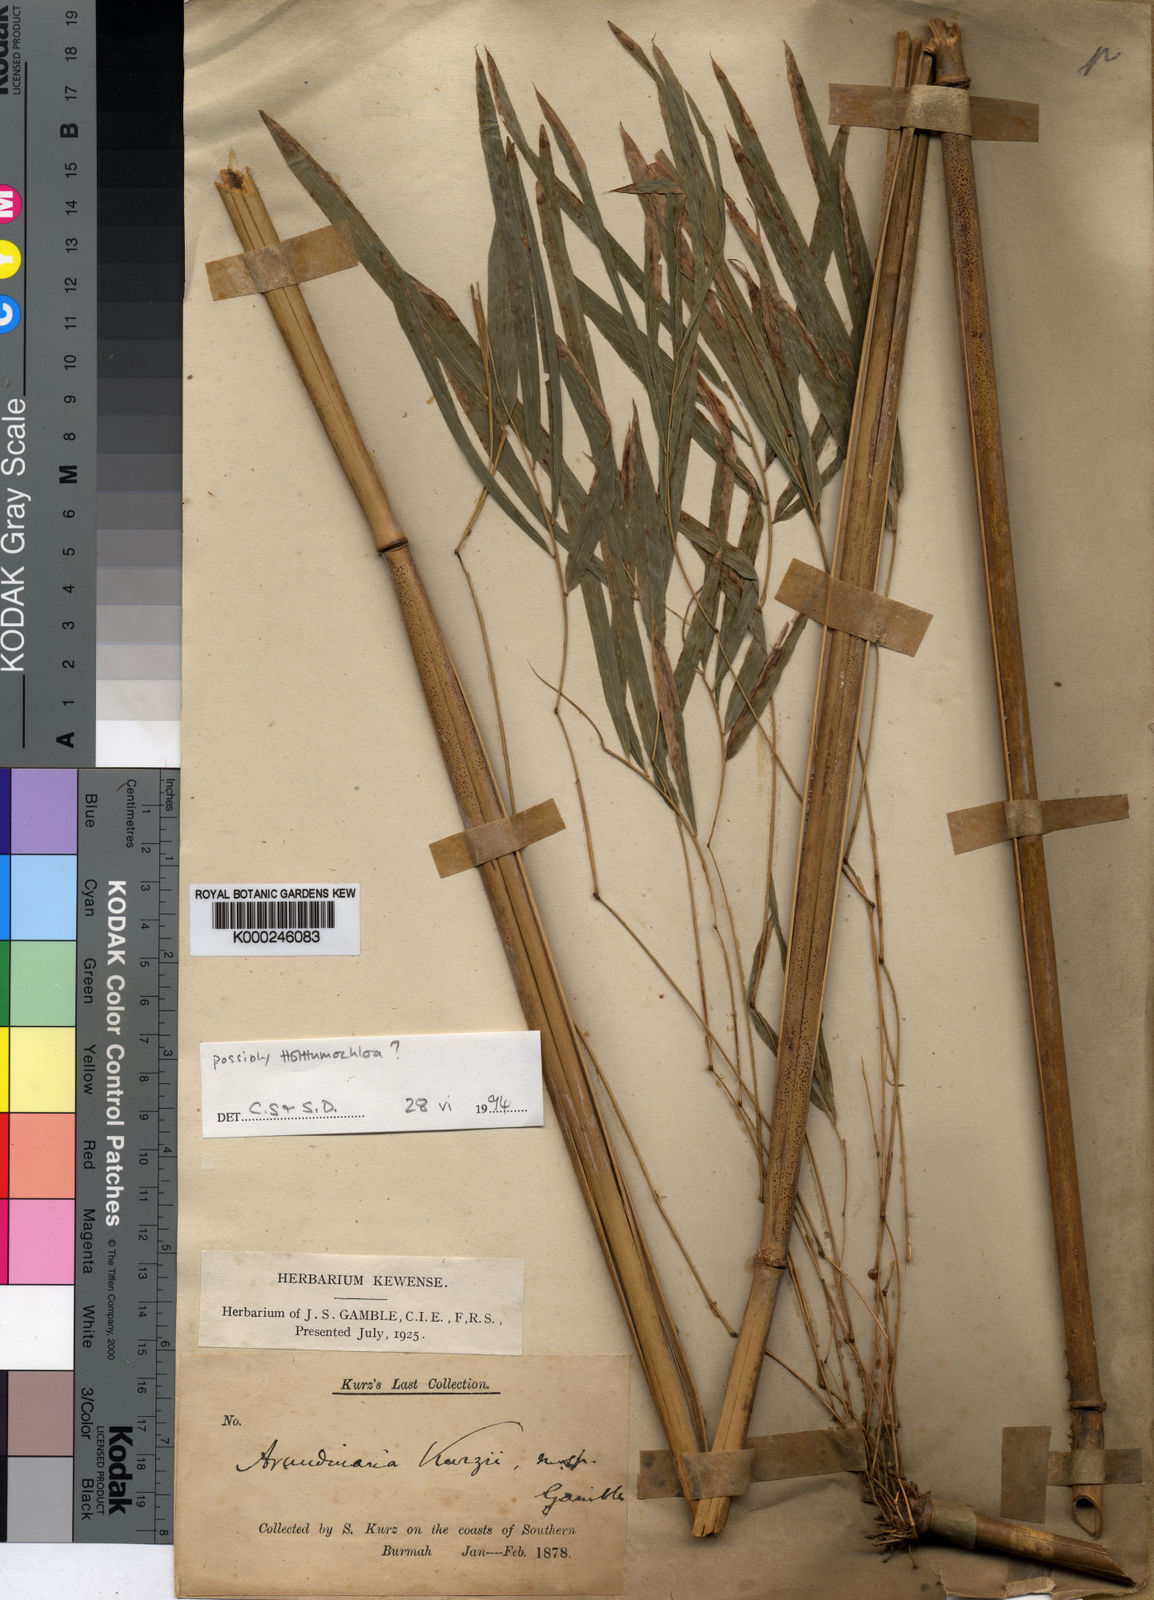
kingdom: Plantae
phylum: Tracheophyta
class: Liliopsida
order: Poales
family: Poaceae
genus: Drepanostachyum
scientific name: Drepanostachyum kurzii
